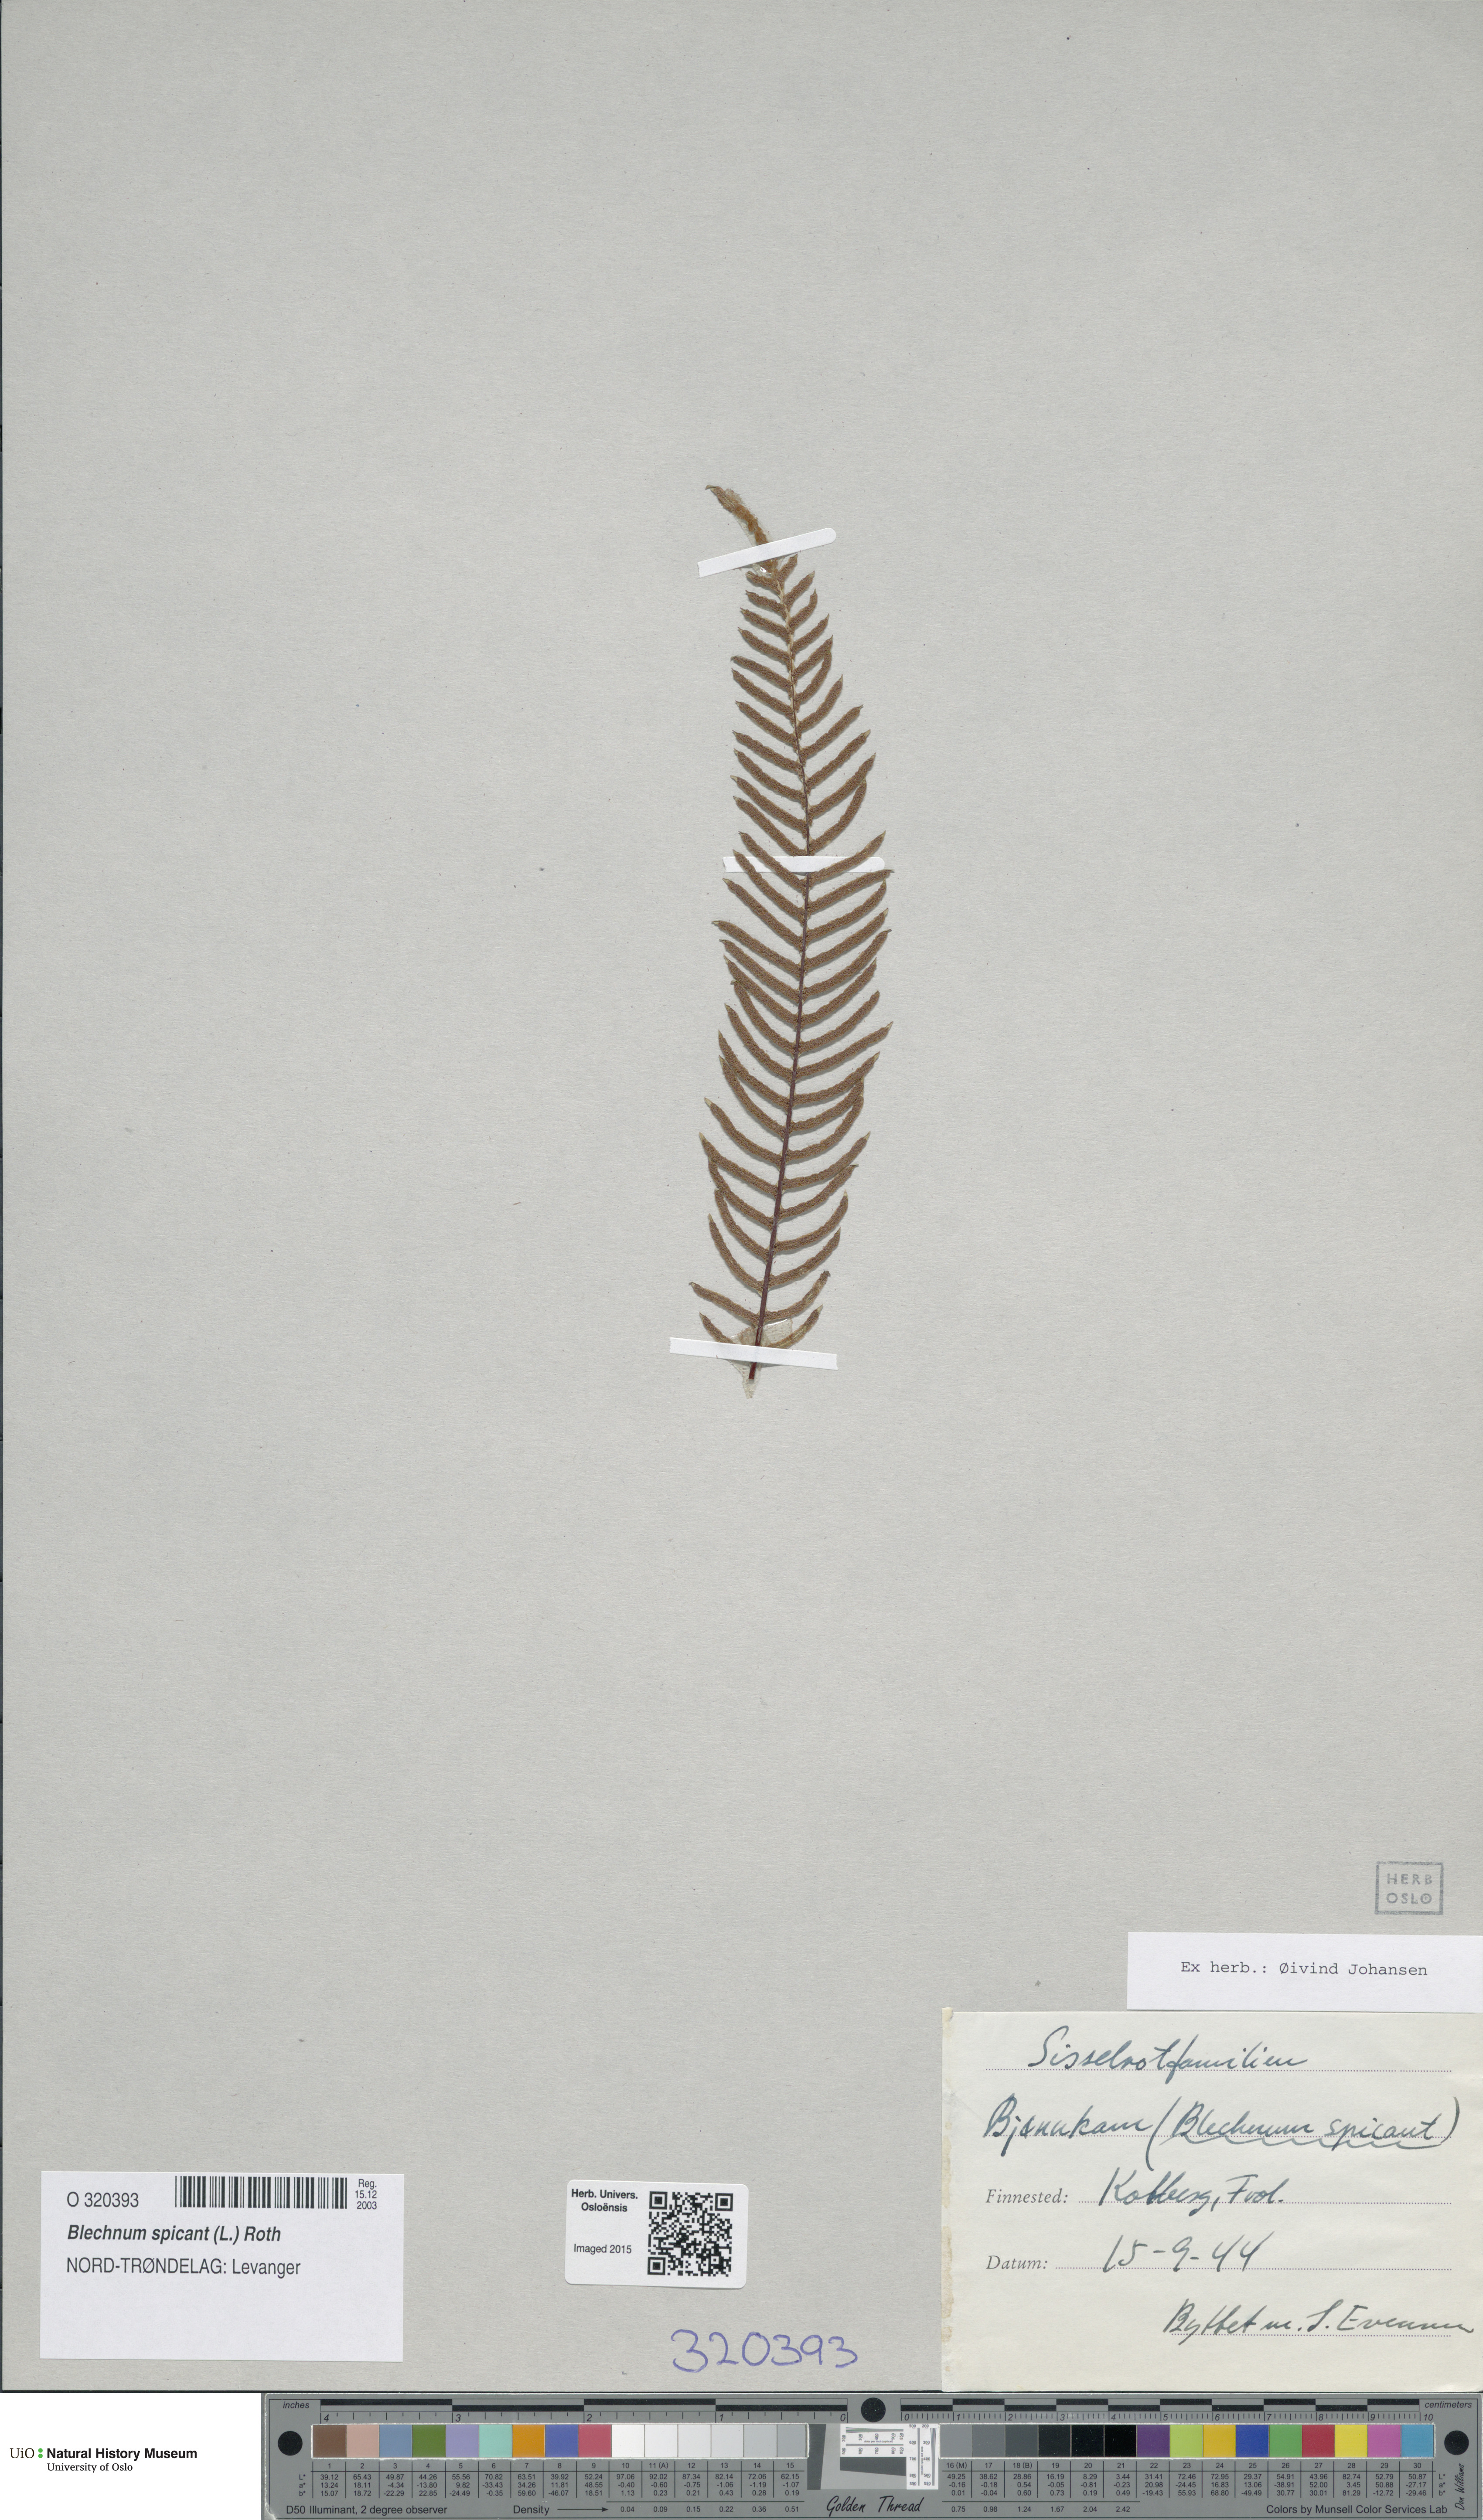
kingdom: Plantae
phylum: Tracheophyta
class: Polypodiopsida
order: Polypodiales
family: Blechnaceae
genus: Struthiopteris
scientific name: Struthiopteris spicant
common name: Deer fern
